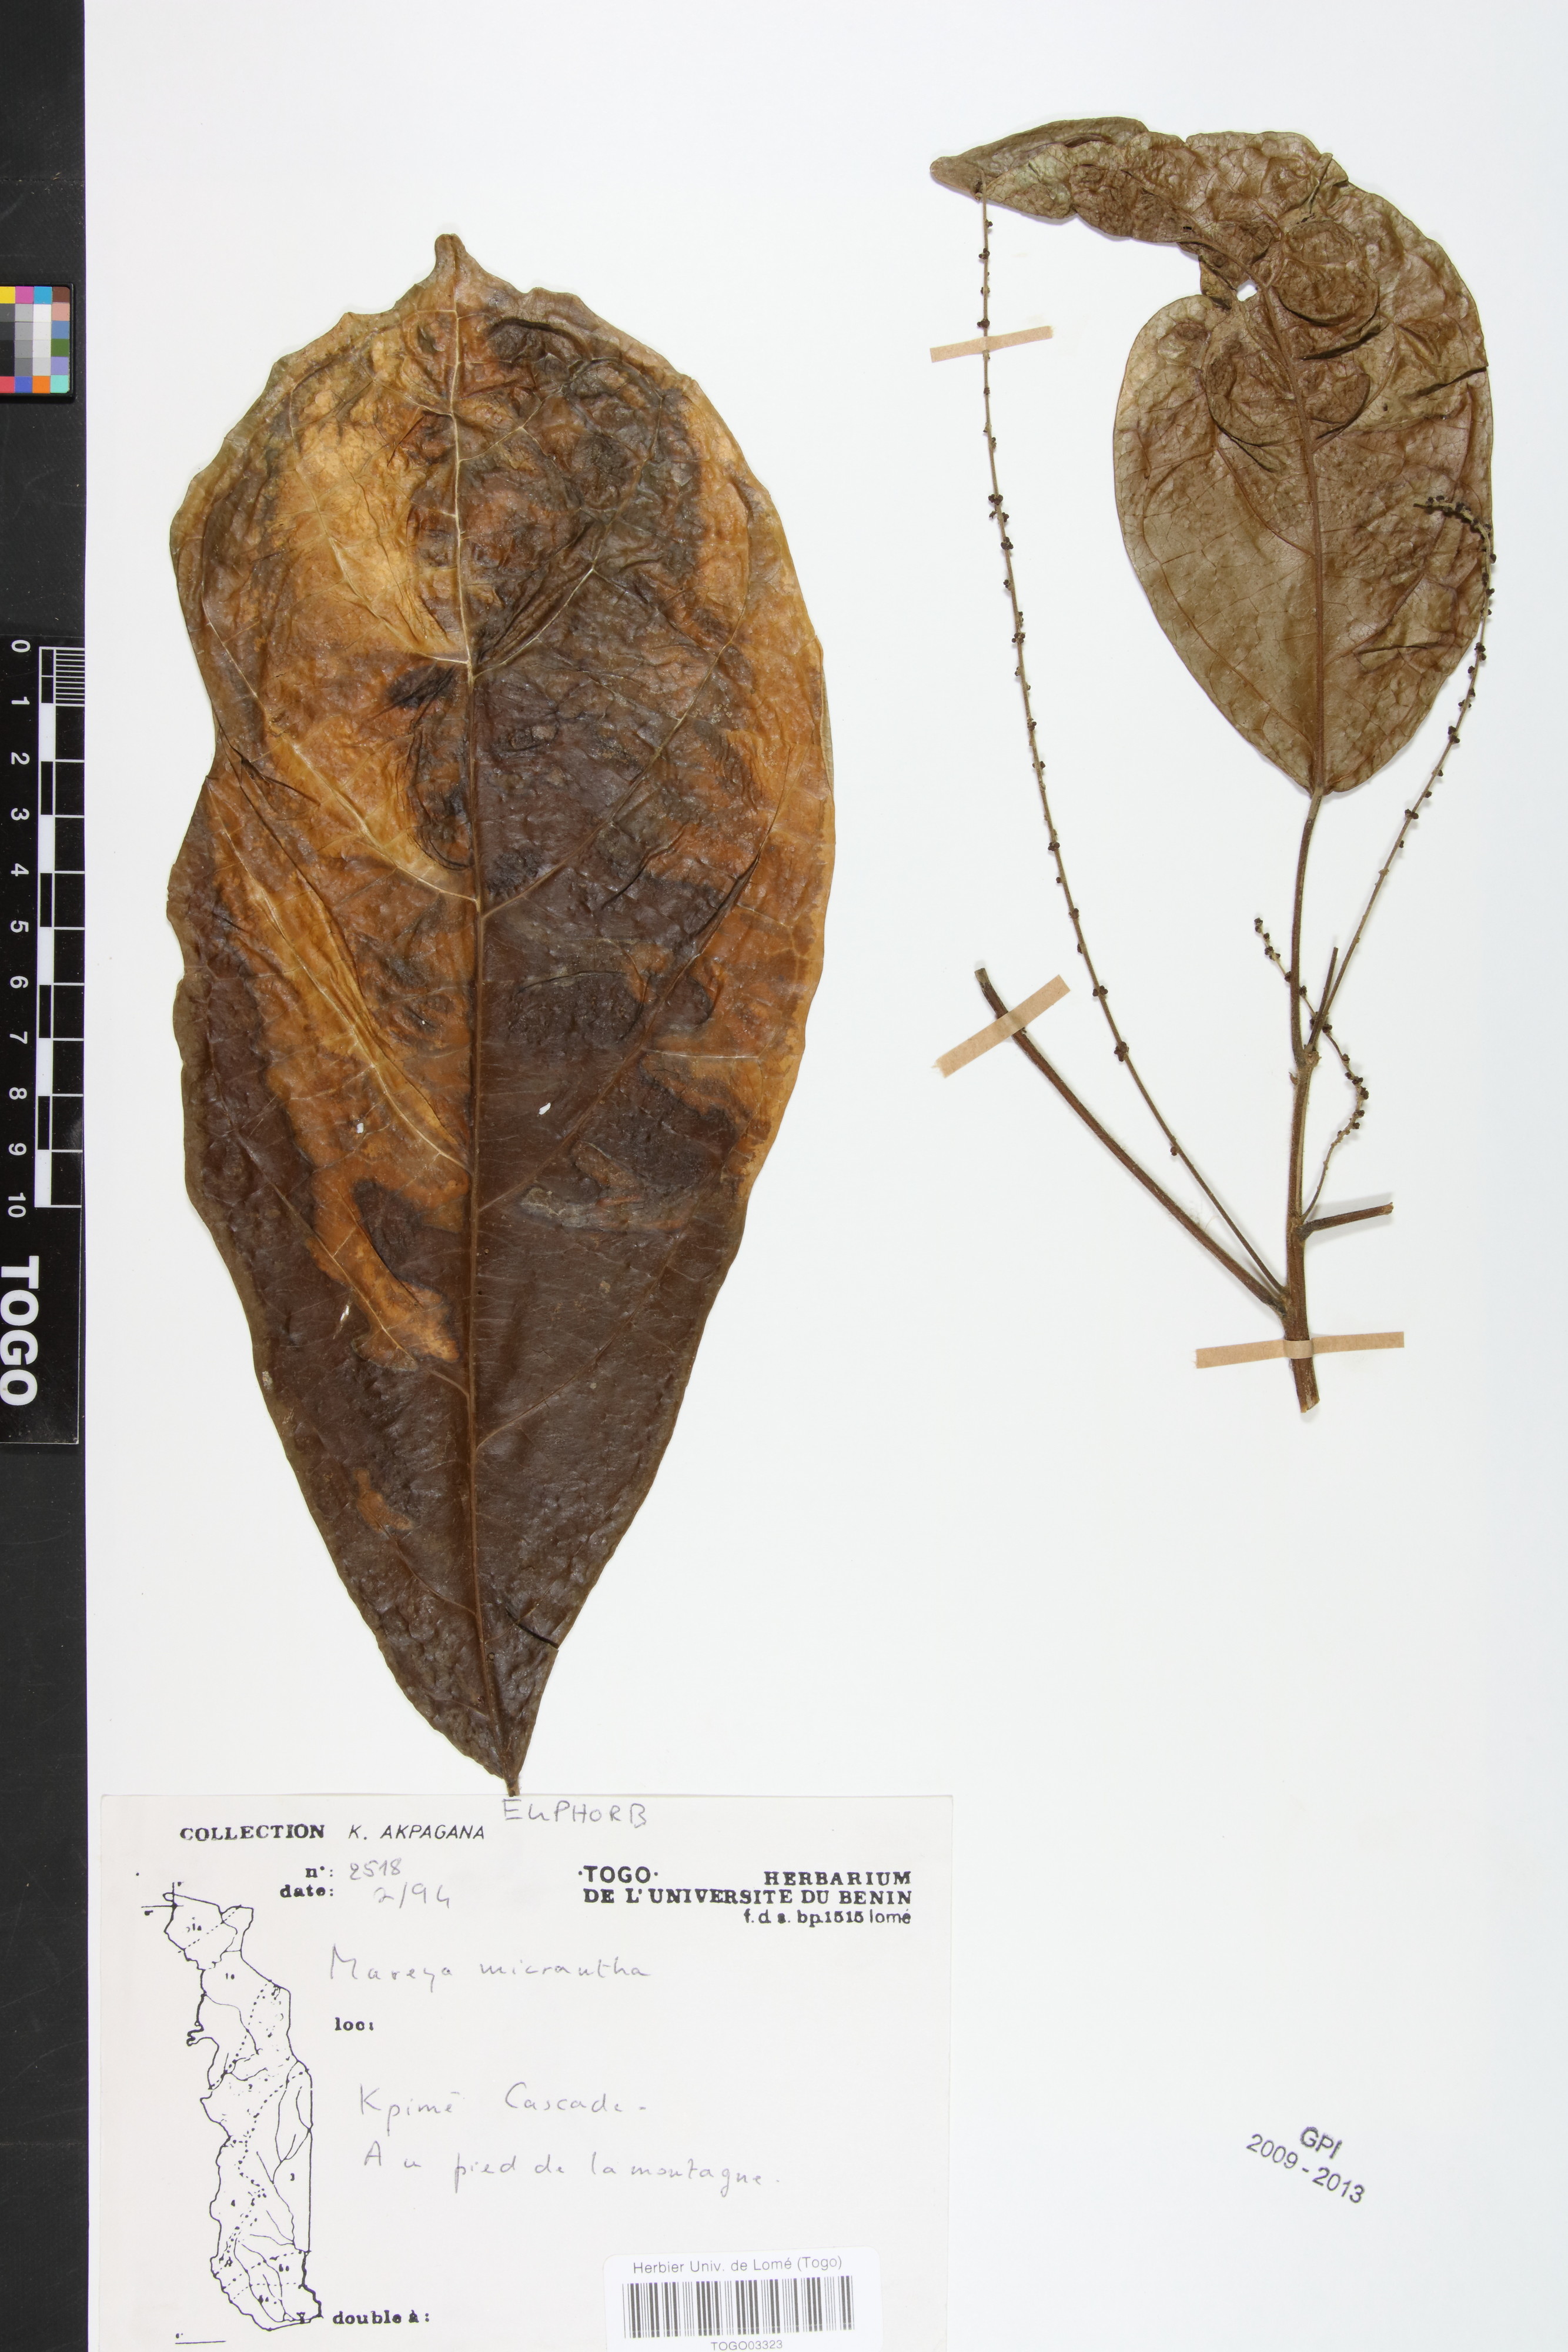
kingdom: Plantae
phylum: Tracheophyta
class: Magnoliopsida
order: Malpighiales
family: Euphorbiaceae
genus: Mareya
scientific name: Mareya micrantha
